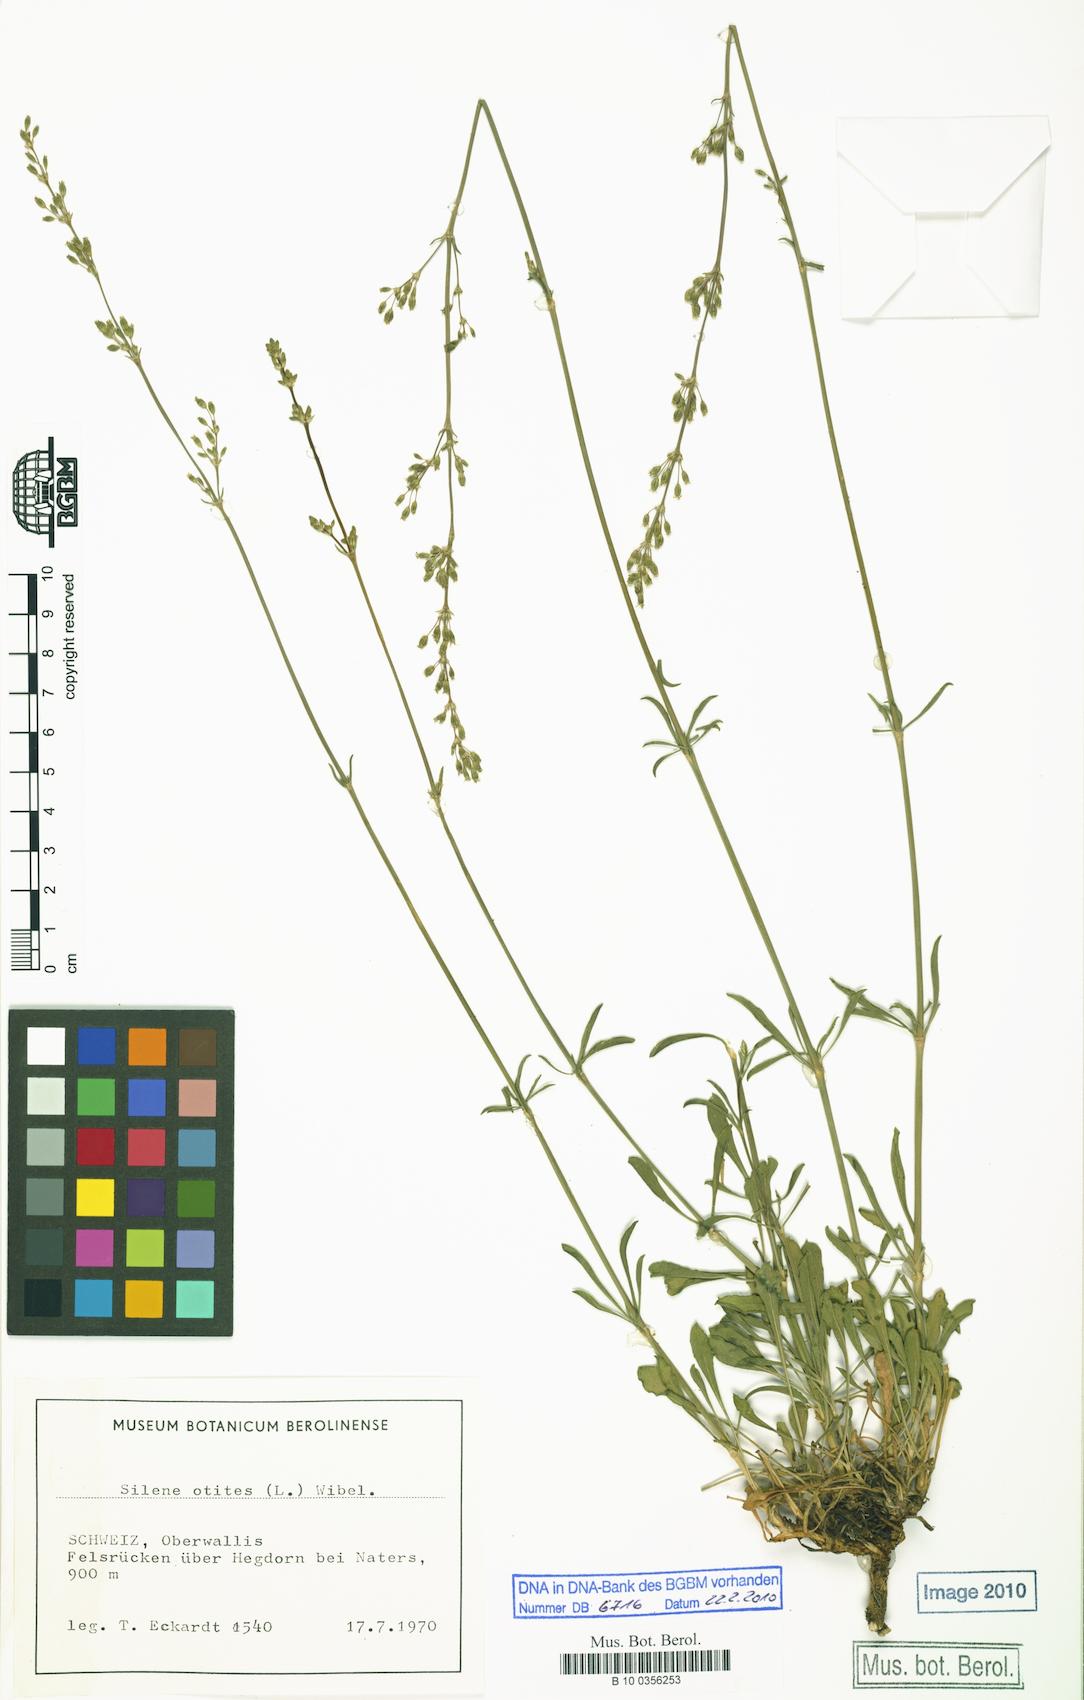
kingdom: Plantae
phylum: Tracheophyta
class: Magnoliopsida
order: Caryophyllales
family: Caryophyllaceae
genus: Silene
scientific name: Silene otites
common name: Spanish catchfly
